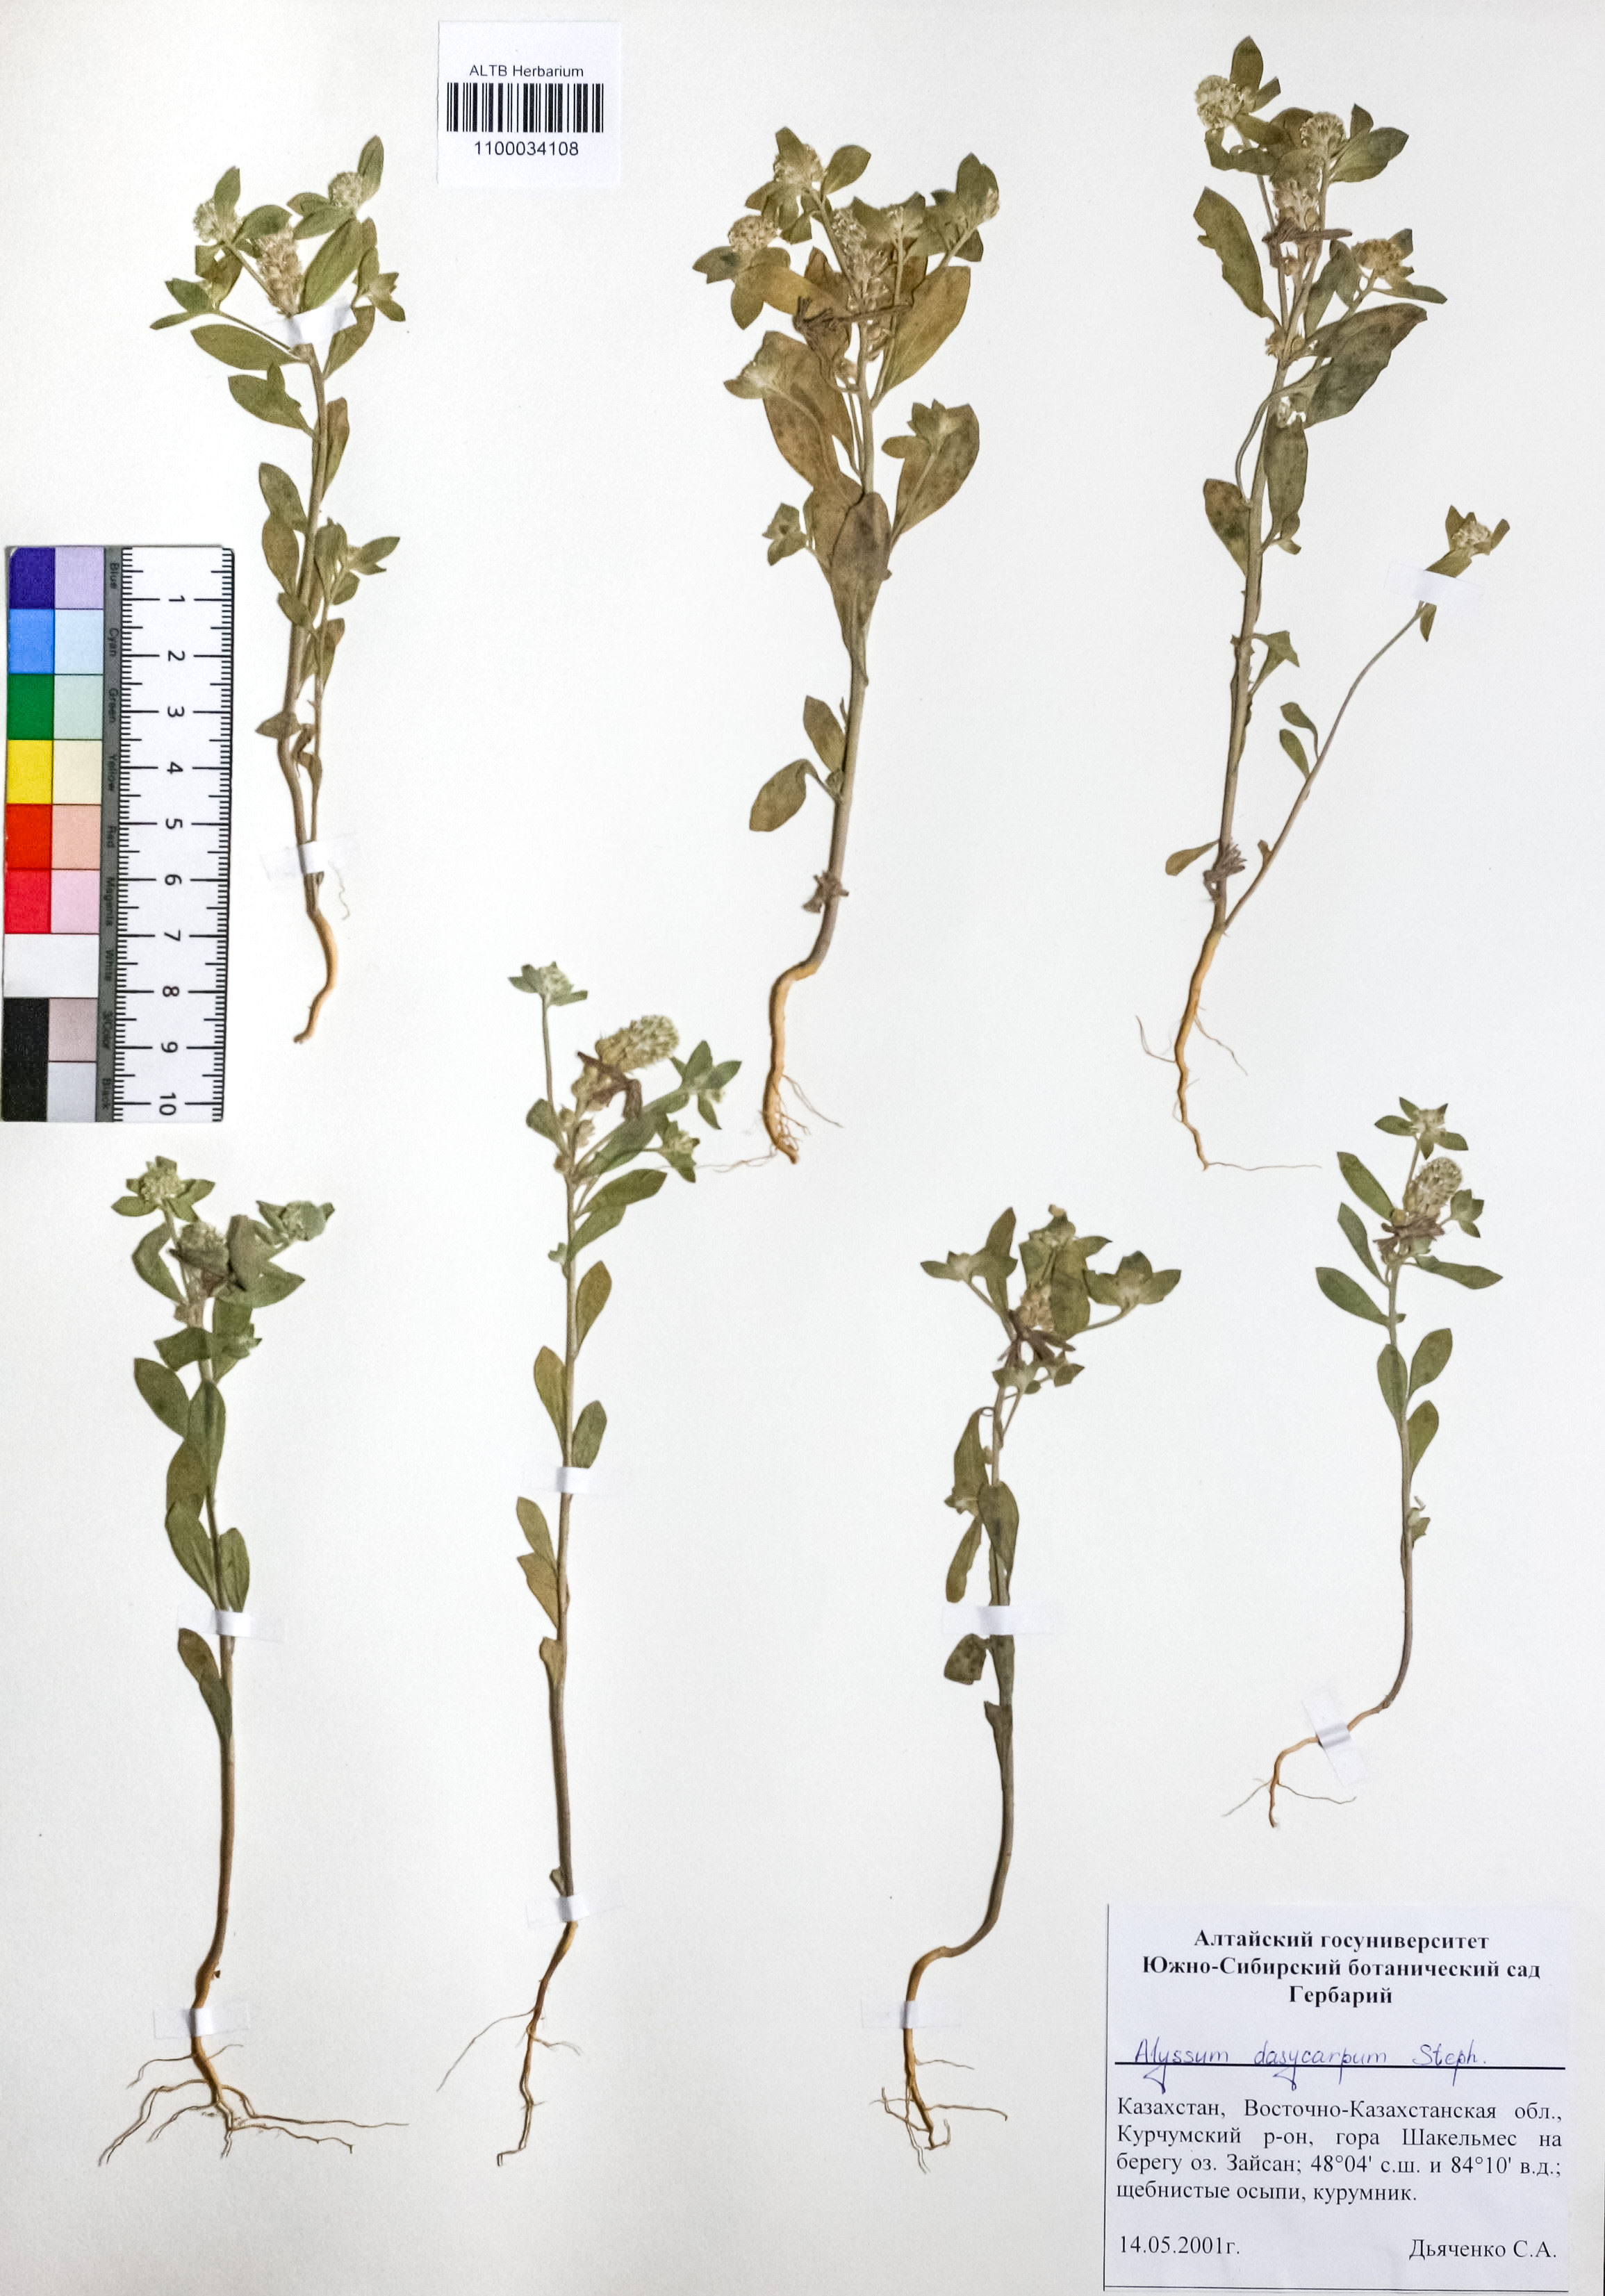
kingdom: Plantae
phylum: Tracheophyta
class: Magnoliopsida
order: Brassicales
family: Brassicaceae
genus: Alyssum
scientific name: Alyssum dasycarpum
